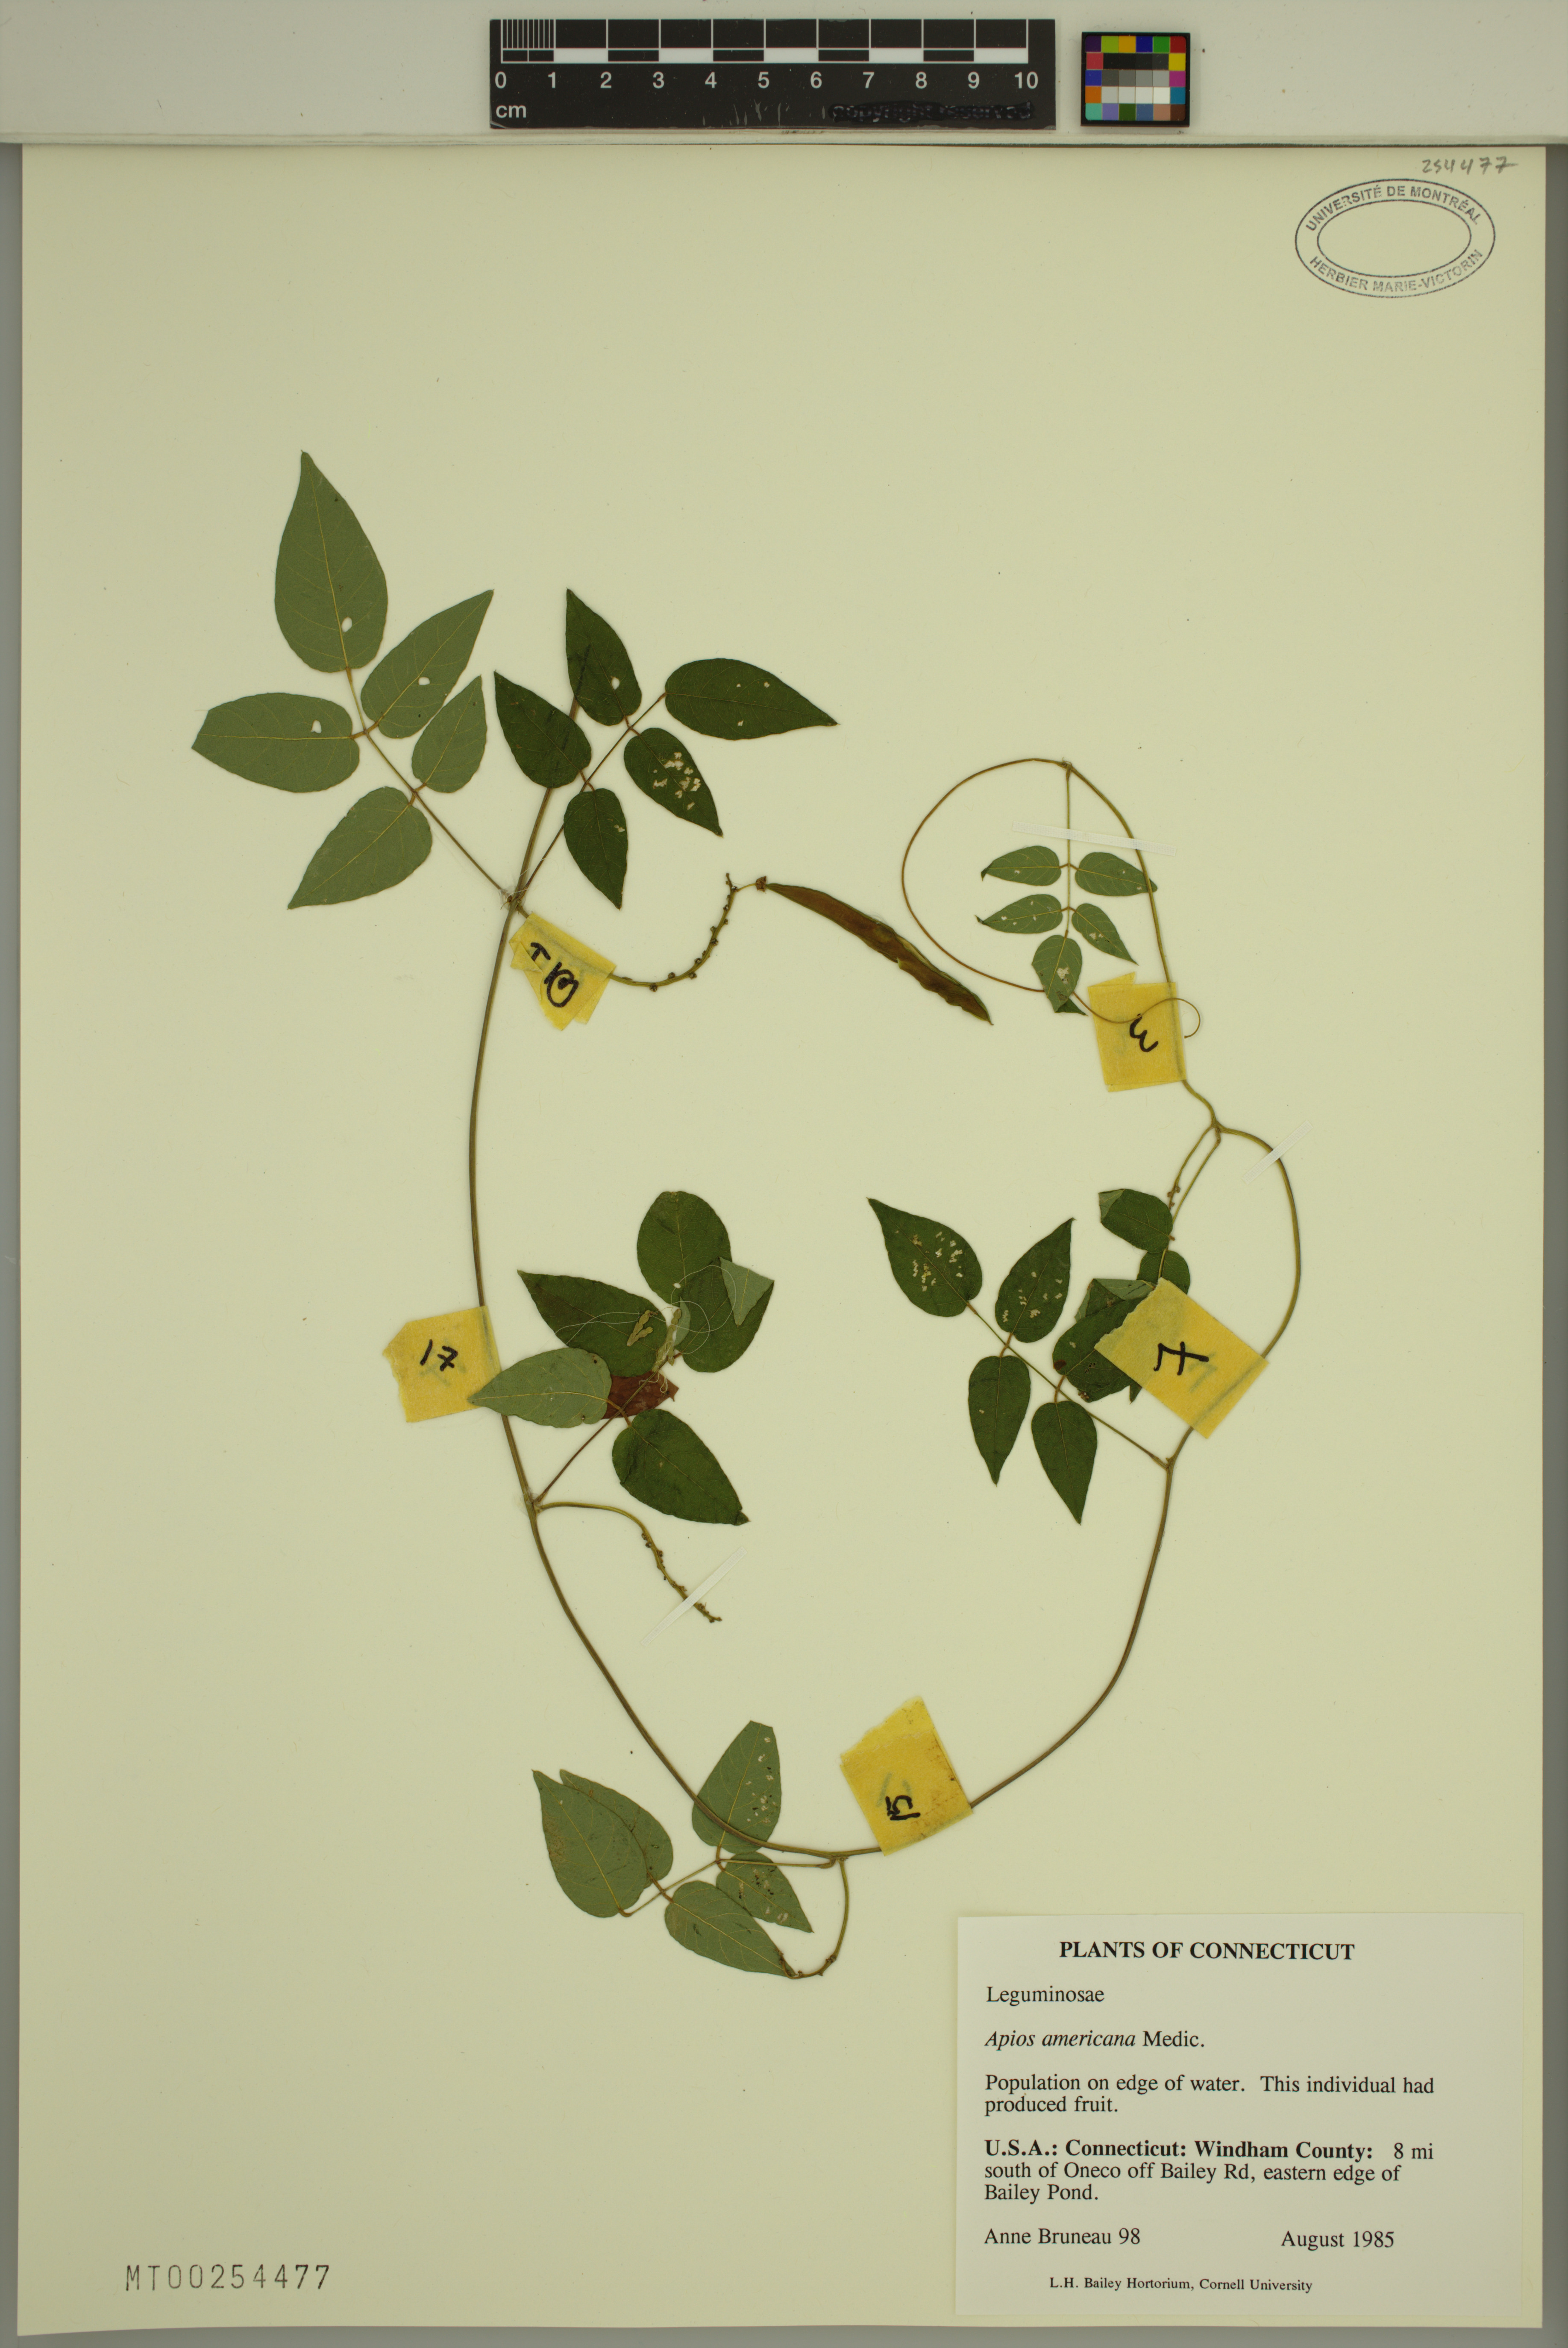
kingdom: Plantae
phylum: Tracheophyta
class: Magnoliopsida
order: Fabales
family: Fabaceae
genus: Apios
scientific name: Apios americana
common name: American potato-bean
